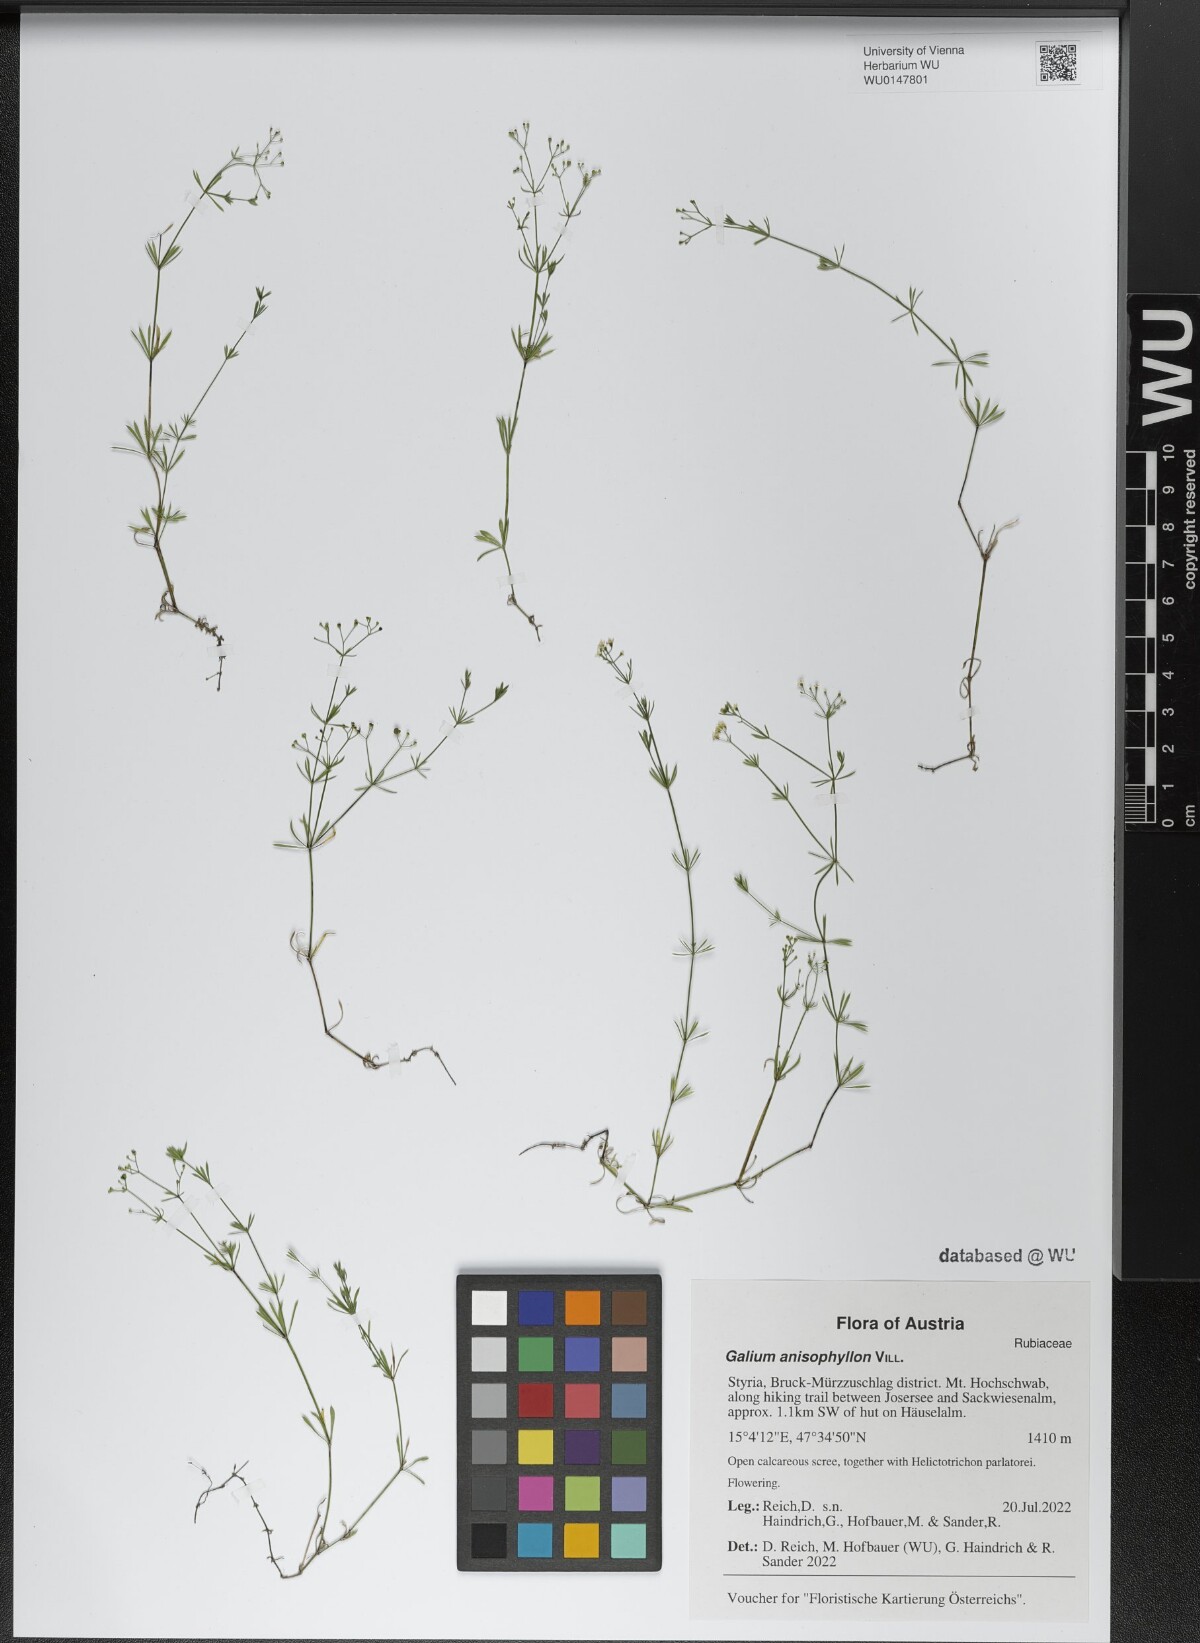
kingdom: Plantae
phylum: Tracheophyta
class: Magnoliopsida
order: Gentianales
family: Rubiaceae
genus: Galium
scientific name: Galium anisophyllon
